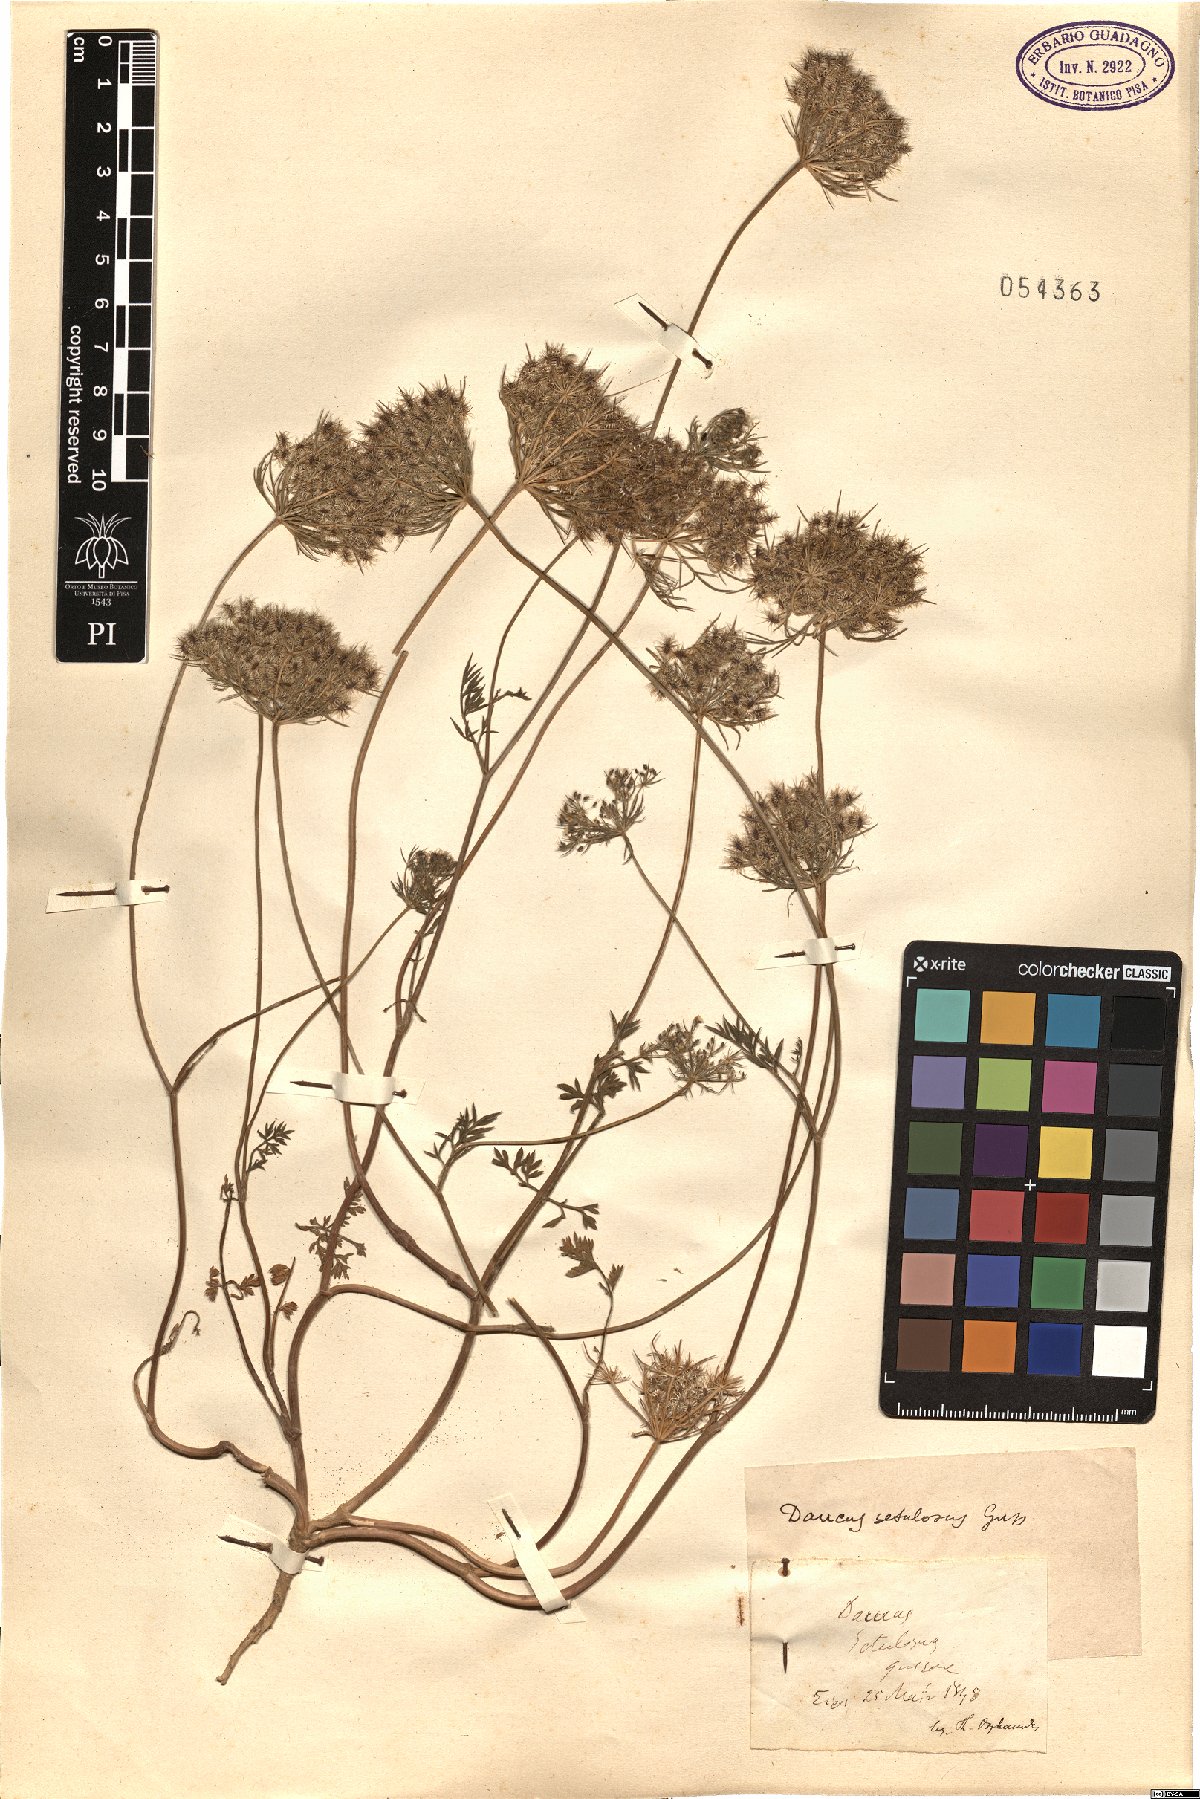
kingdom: Plantae
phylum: Tracheophyta
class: Magnoliopsida
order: Apiales
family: Apiaceae
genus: Daucus
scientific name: Daucus guttatus
